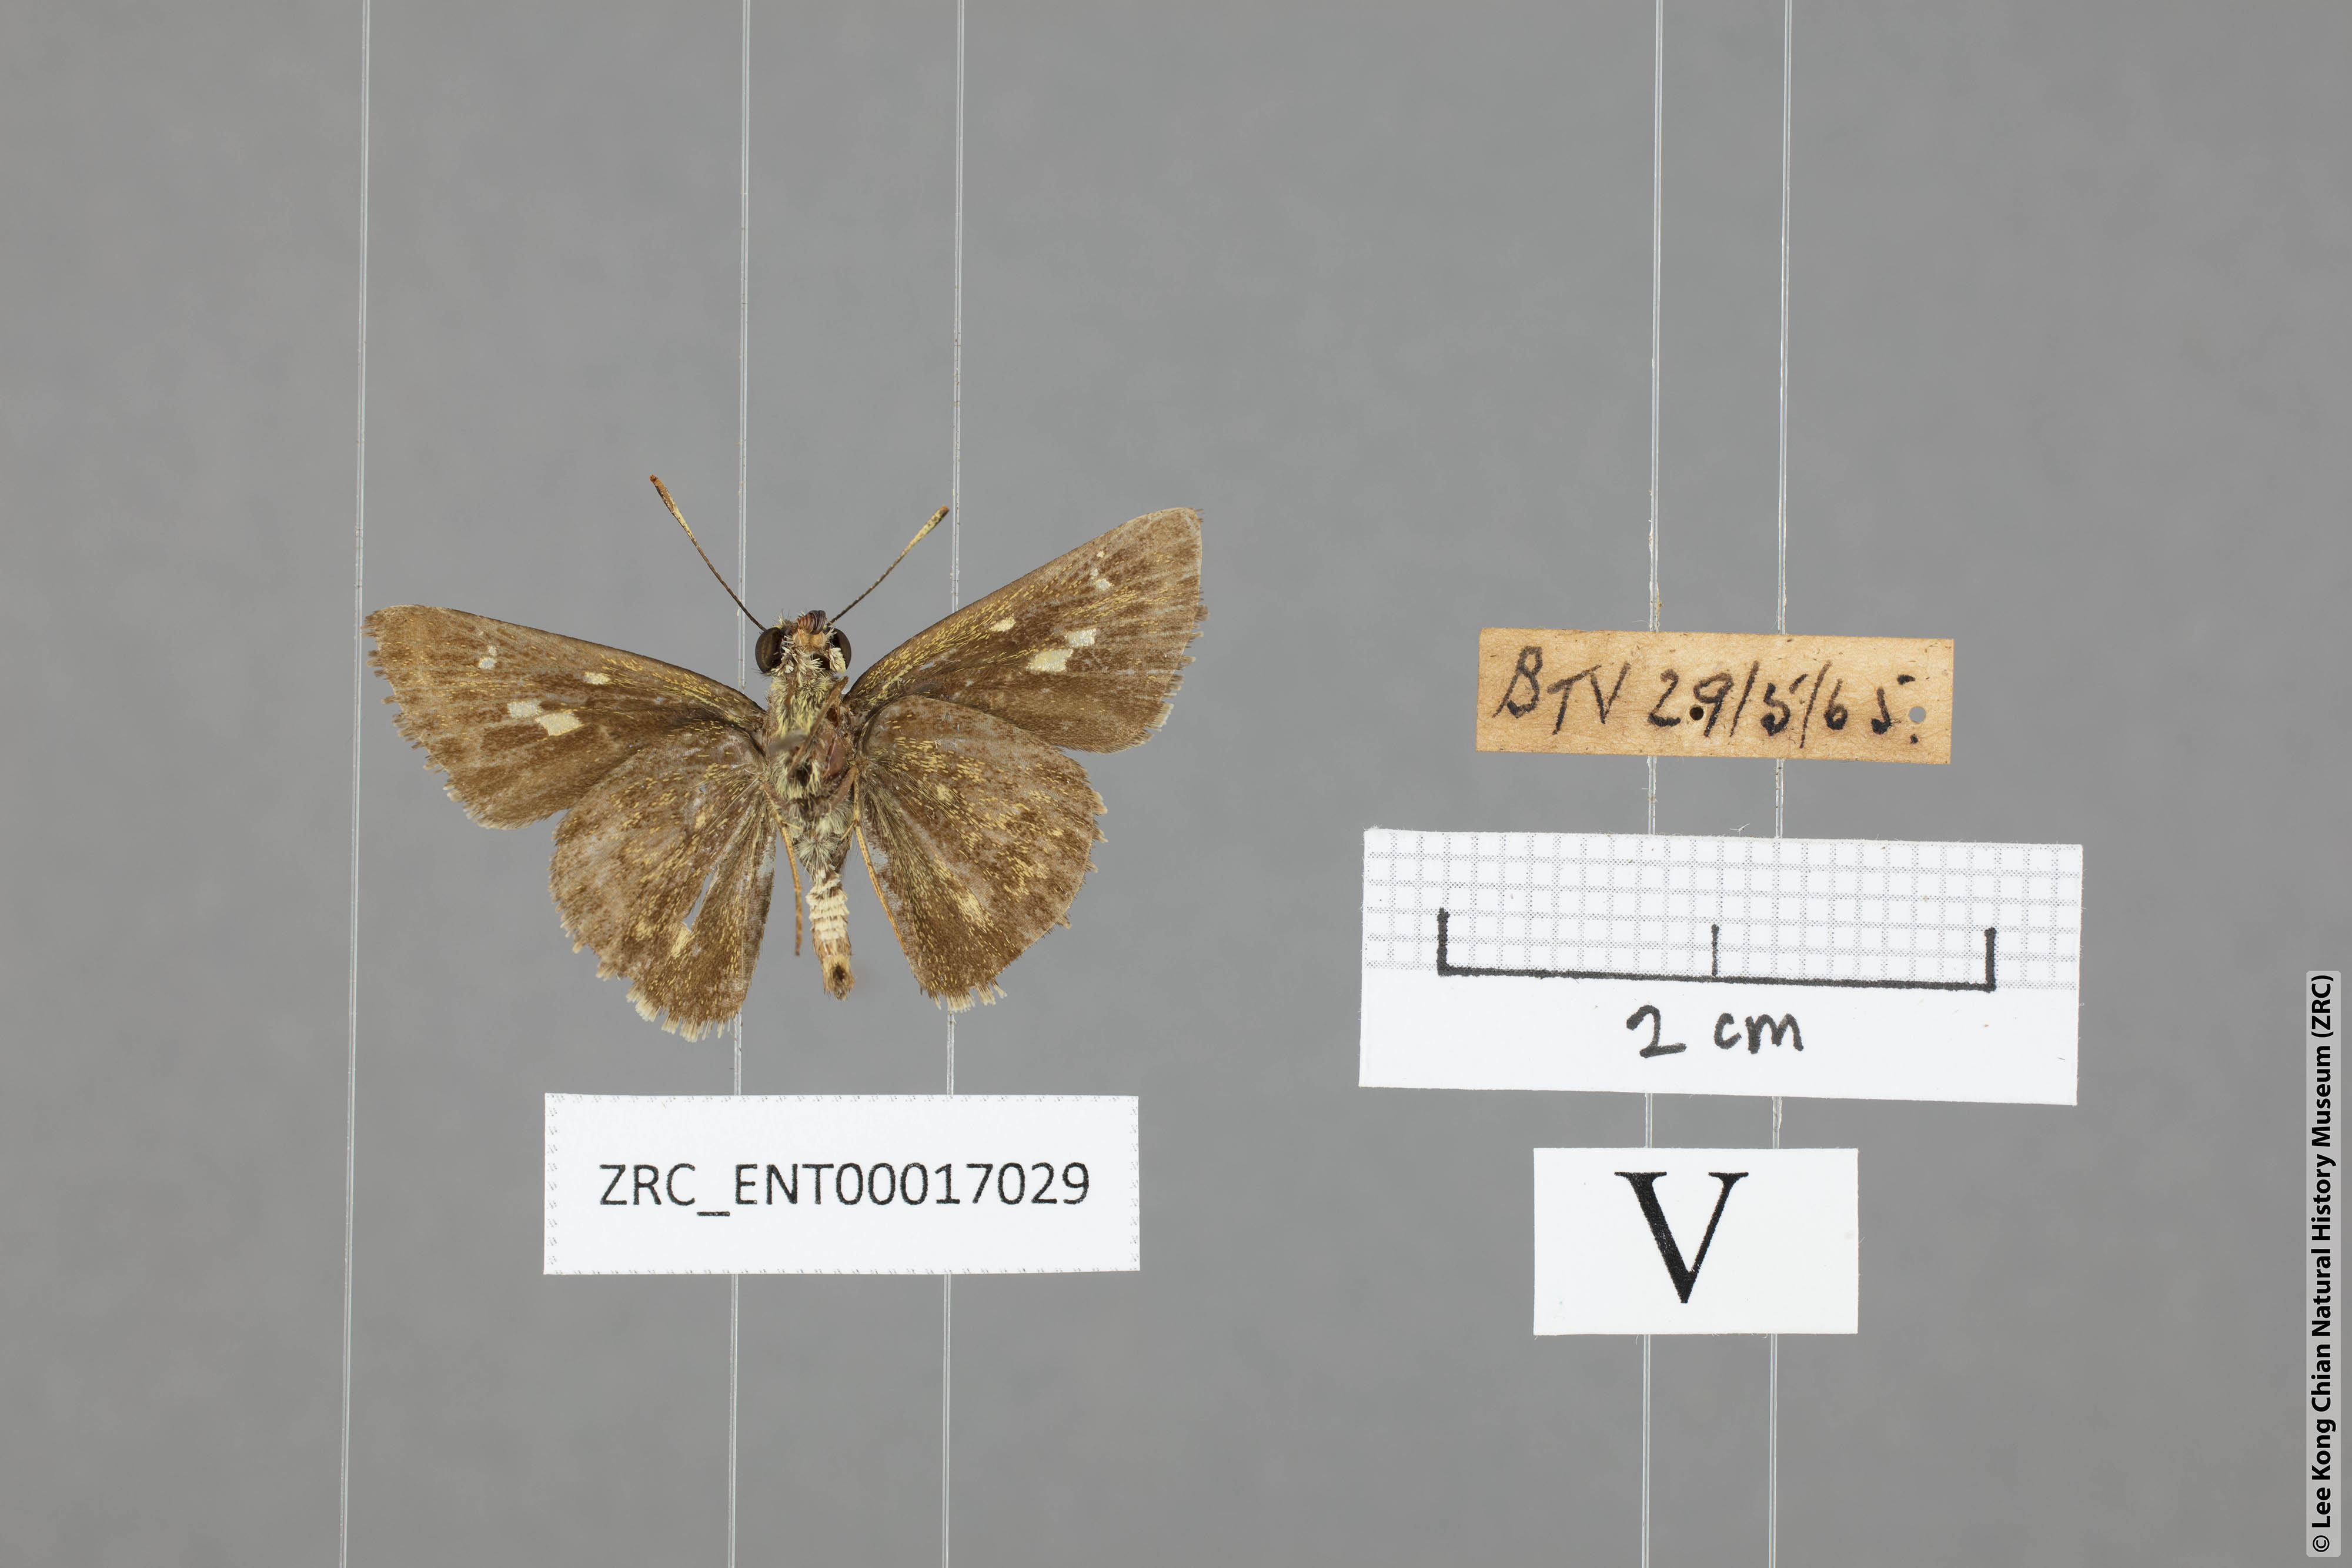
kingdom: Animalia
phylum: Arthropoda
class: Insecta
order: Lepidoptera
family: Hesperiidae
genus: Halpe
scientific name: Halpe pelethronix
